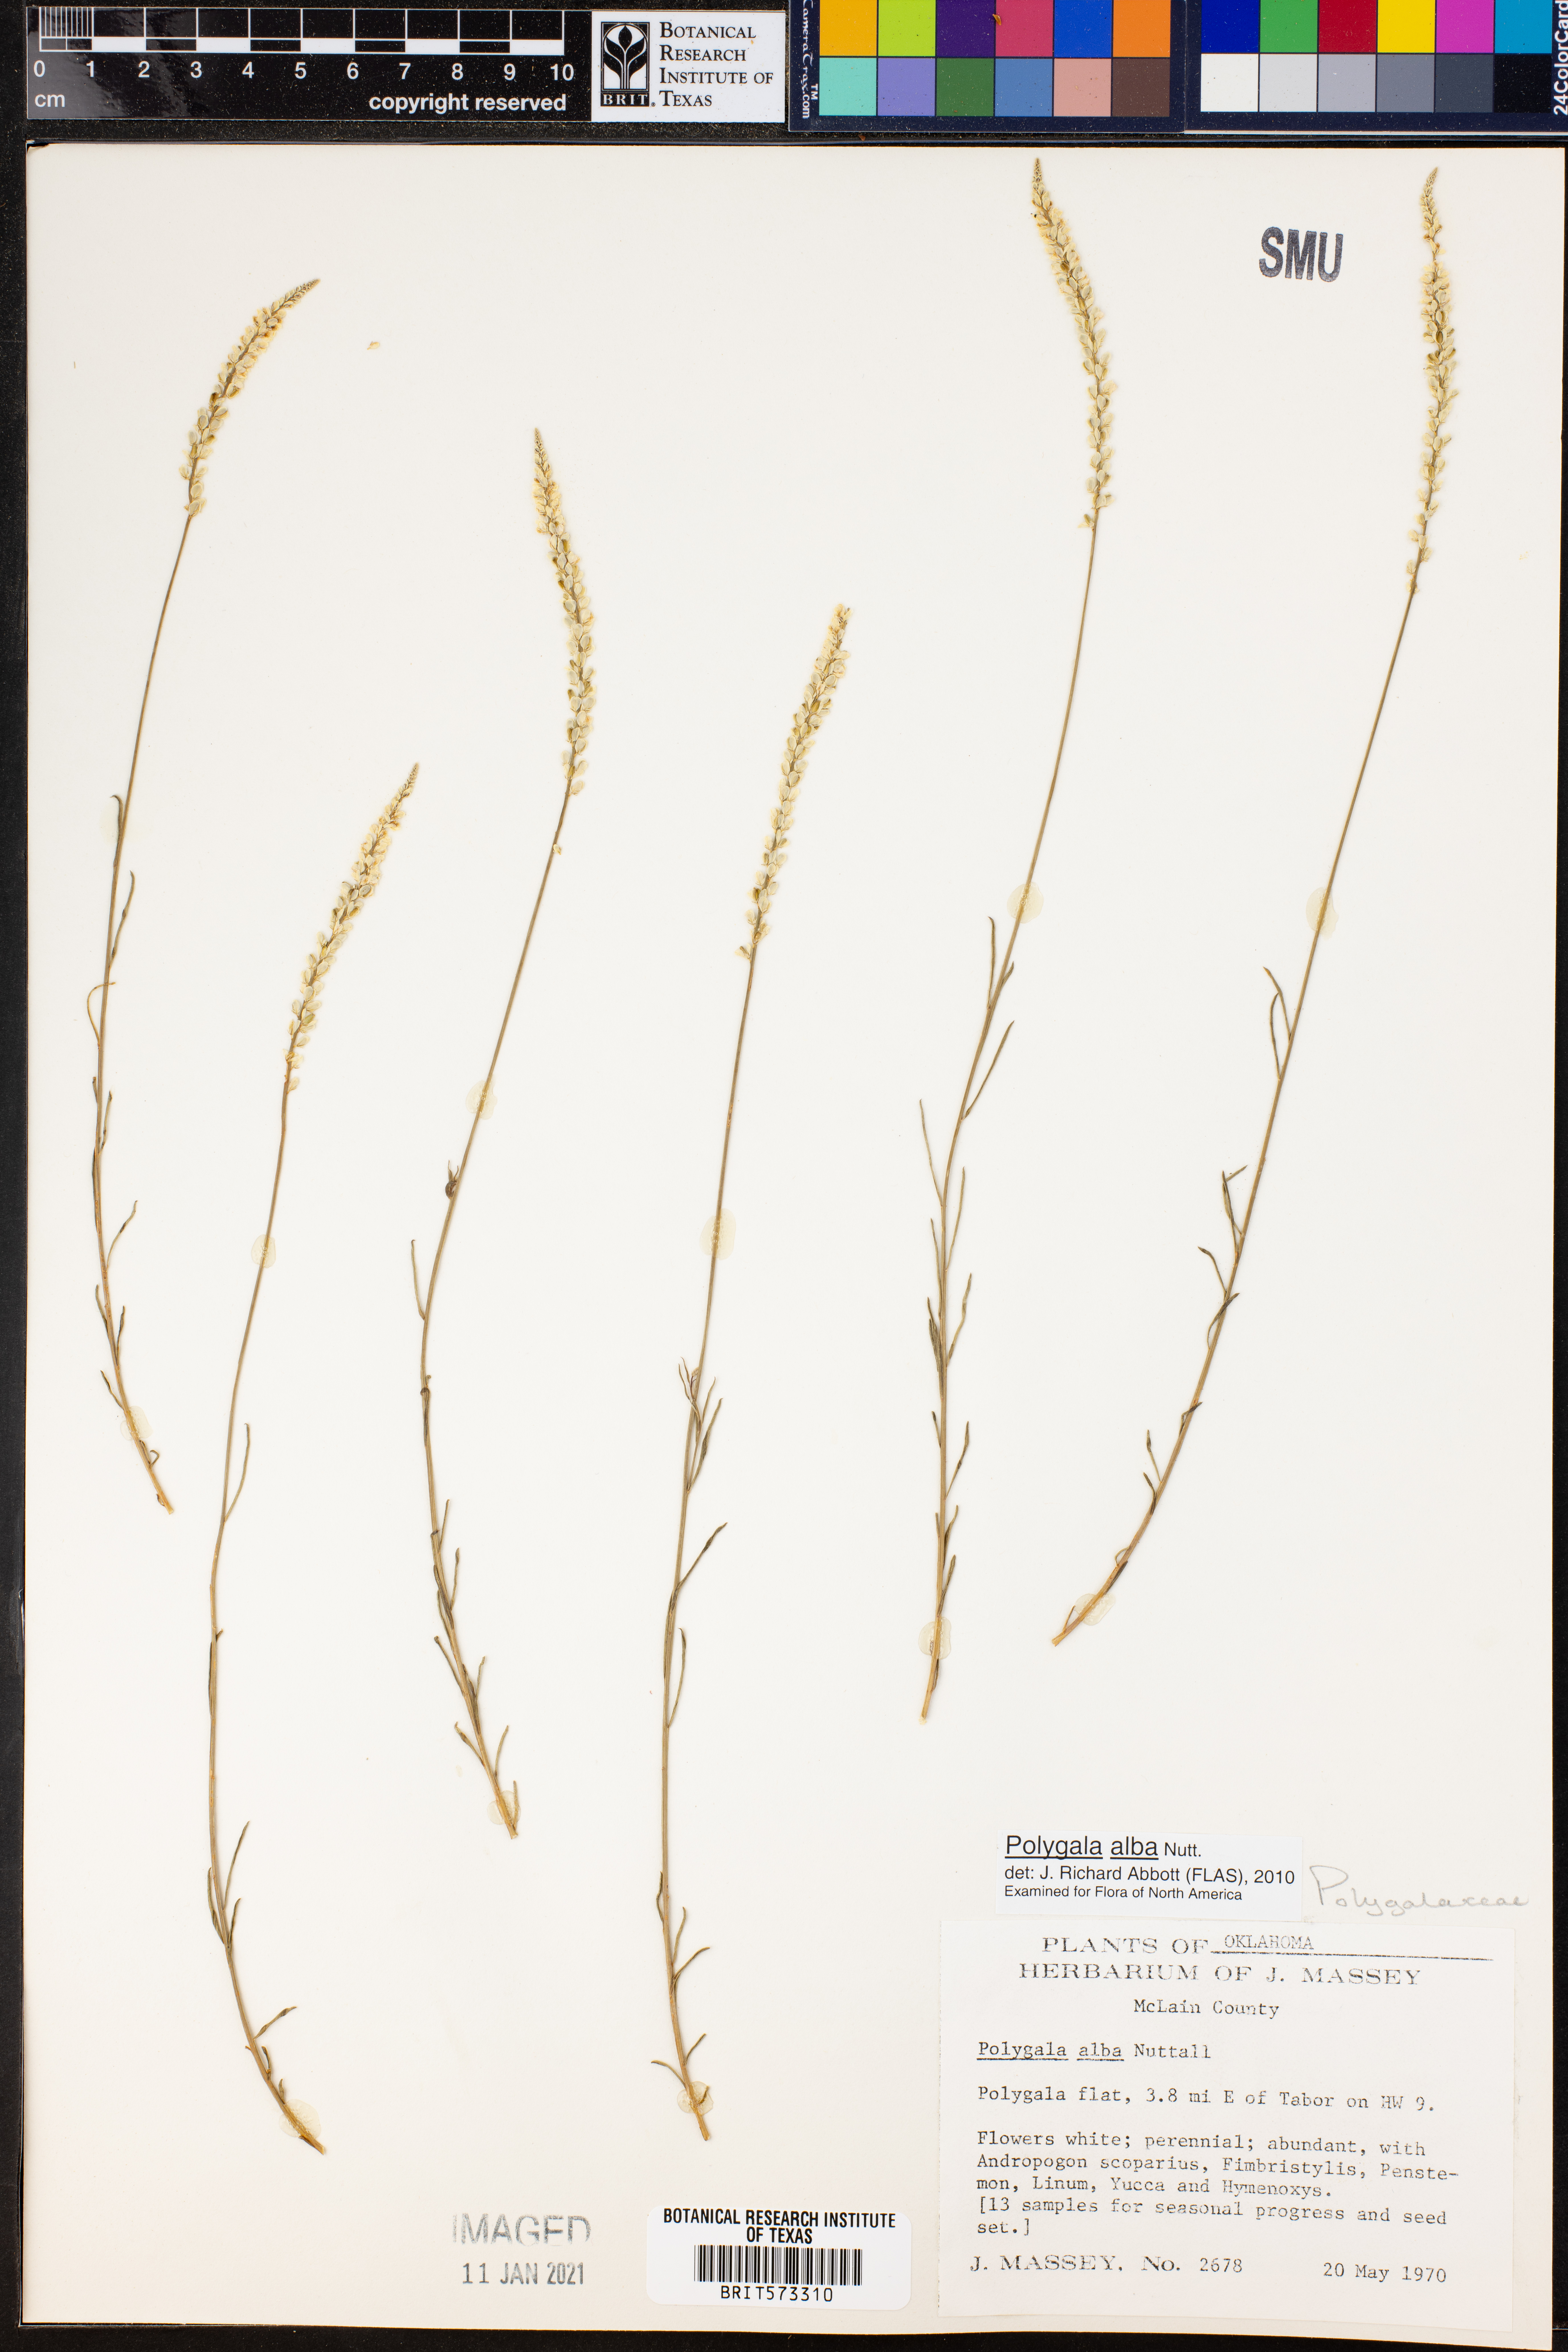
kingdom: Plantae
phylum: Tracheophyta
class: Magnoliopsida
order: Fabales
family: Polygalaceae
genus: Polygala
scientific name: Polygala alba
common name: White milkwort
